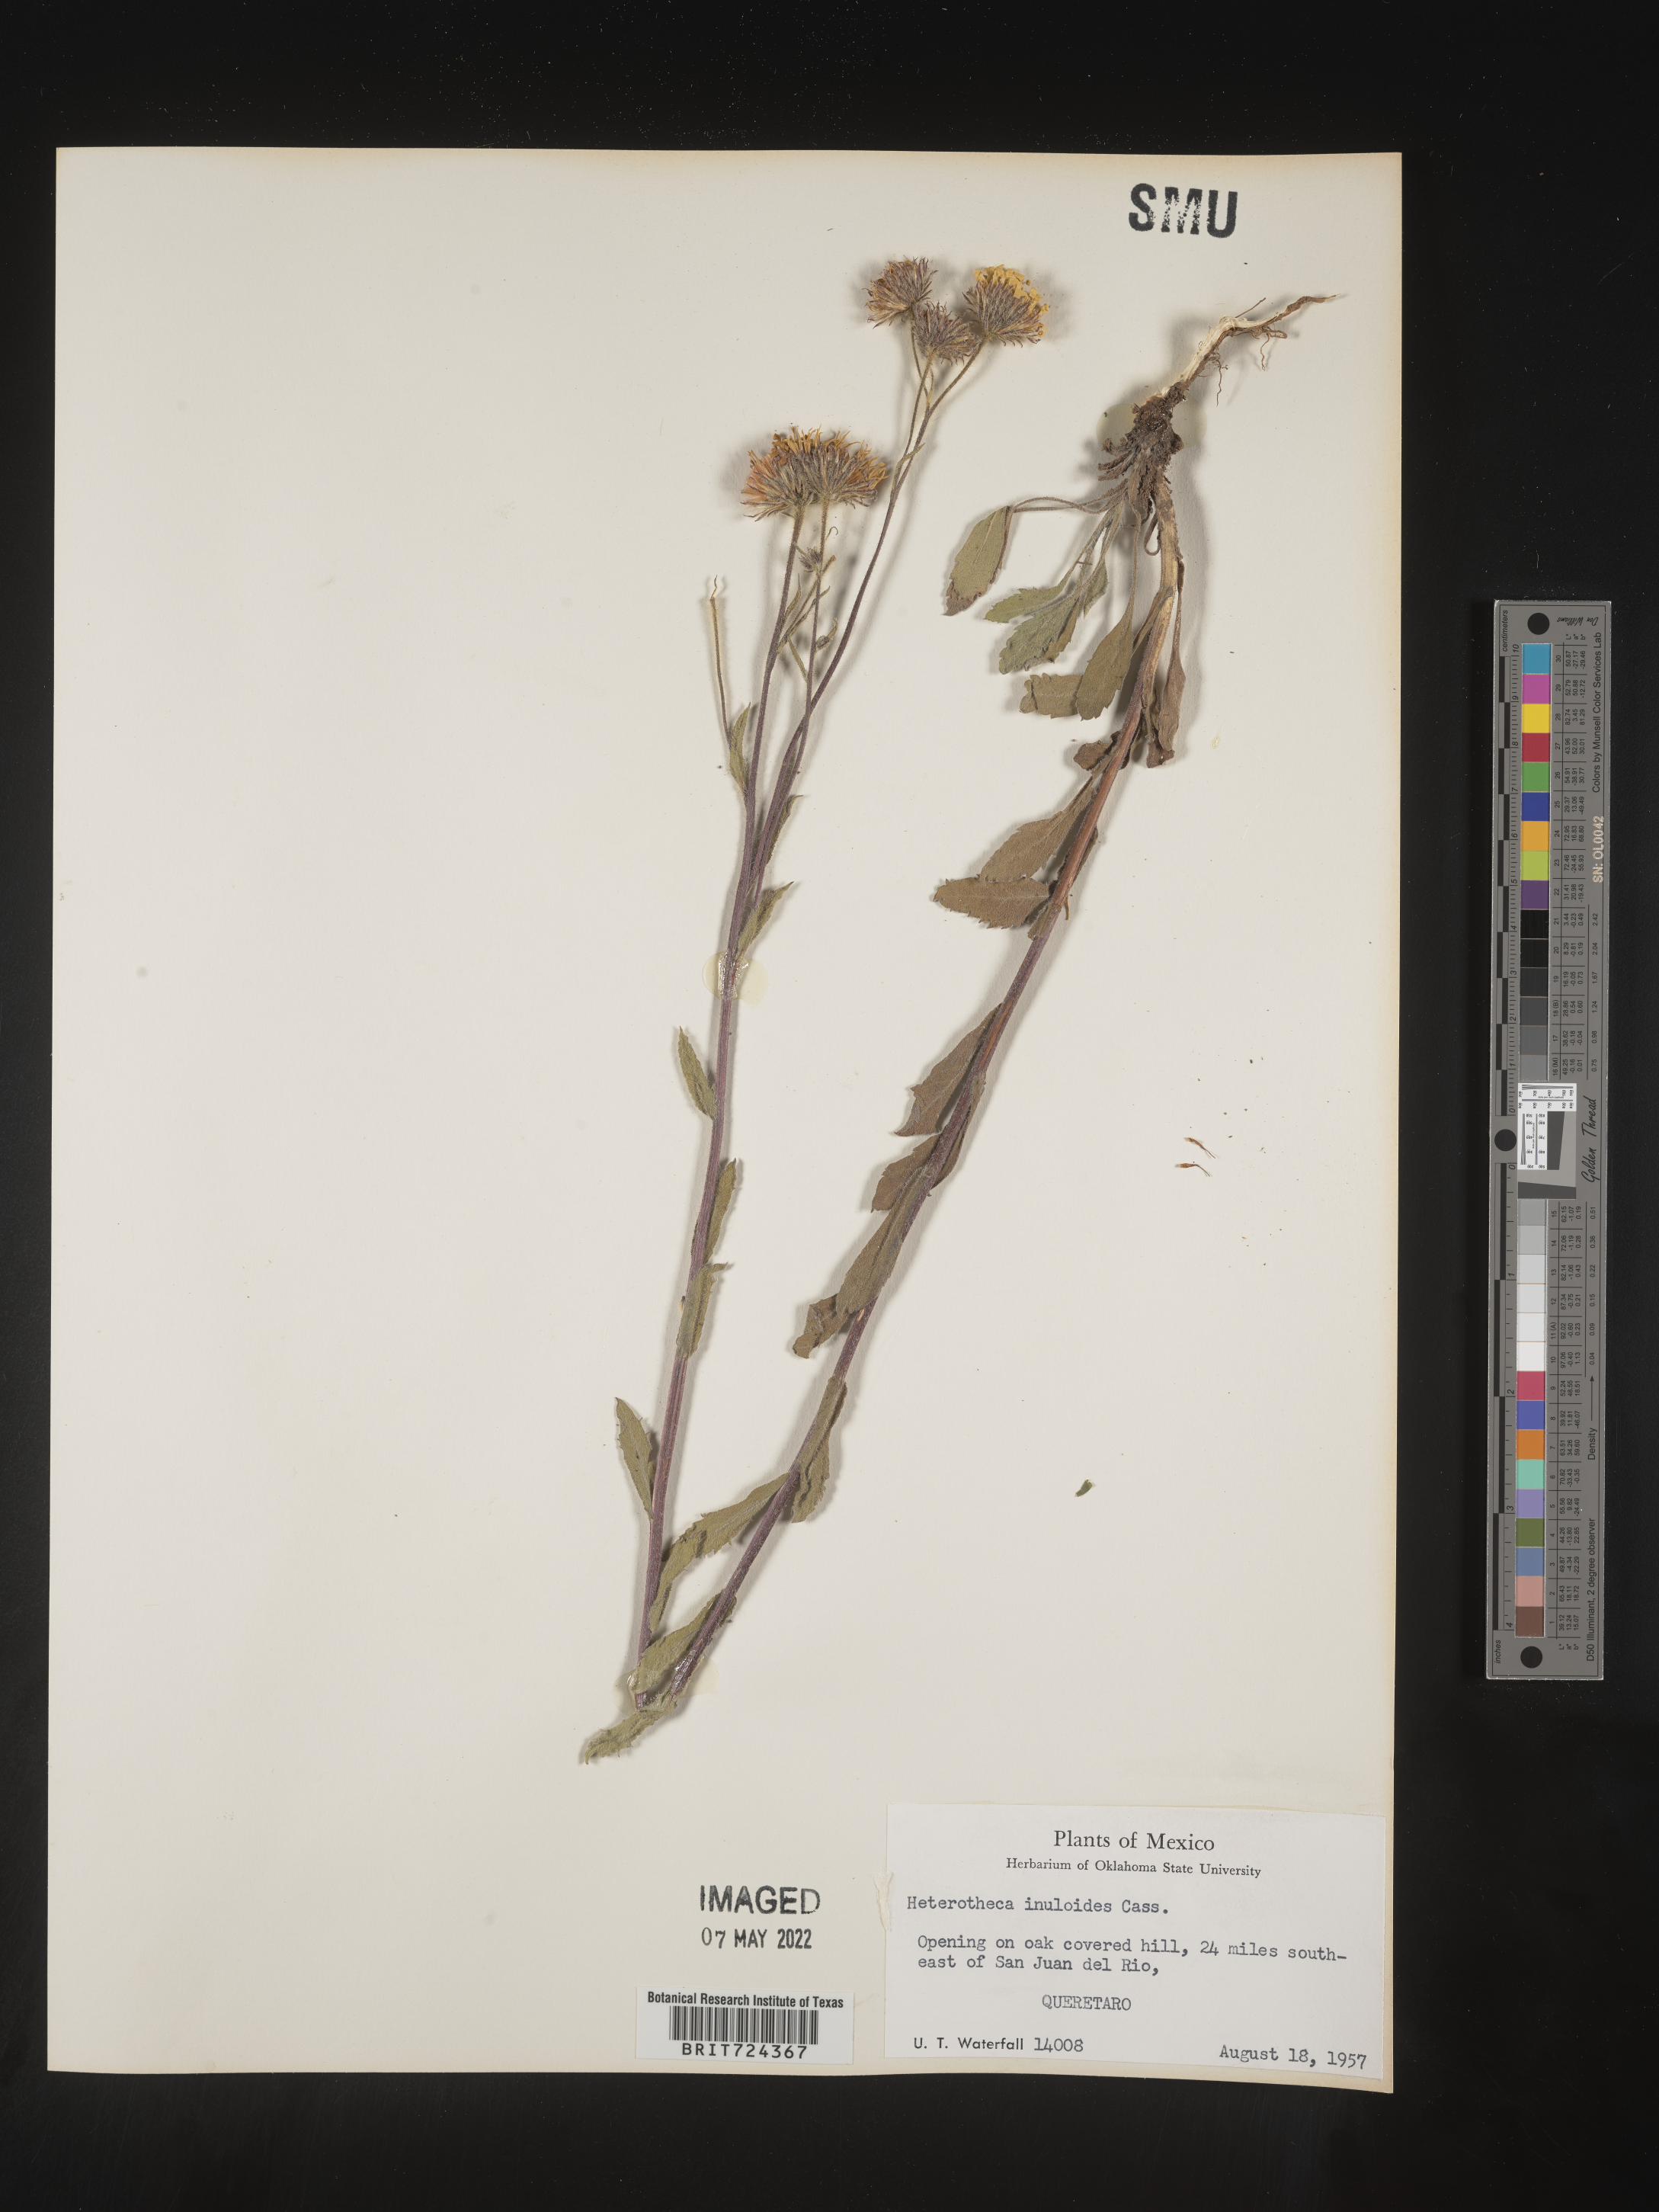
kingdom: Plantae
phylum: Tracheophyta
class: Magnoliopsida
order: Asterales
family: Asteraceae
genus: Heterotheca
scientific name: Heterotheca inuloides
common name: False arnica
